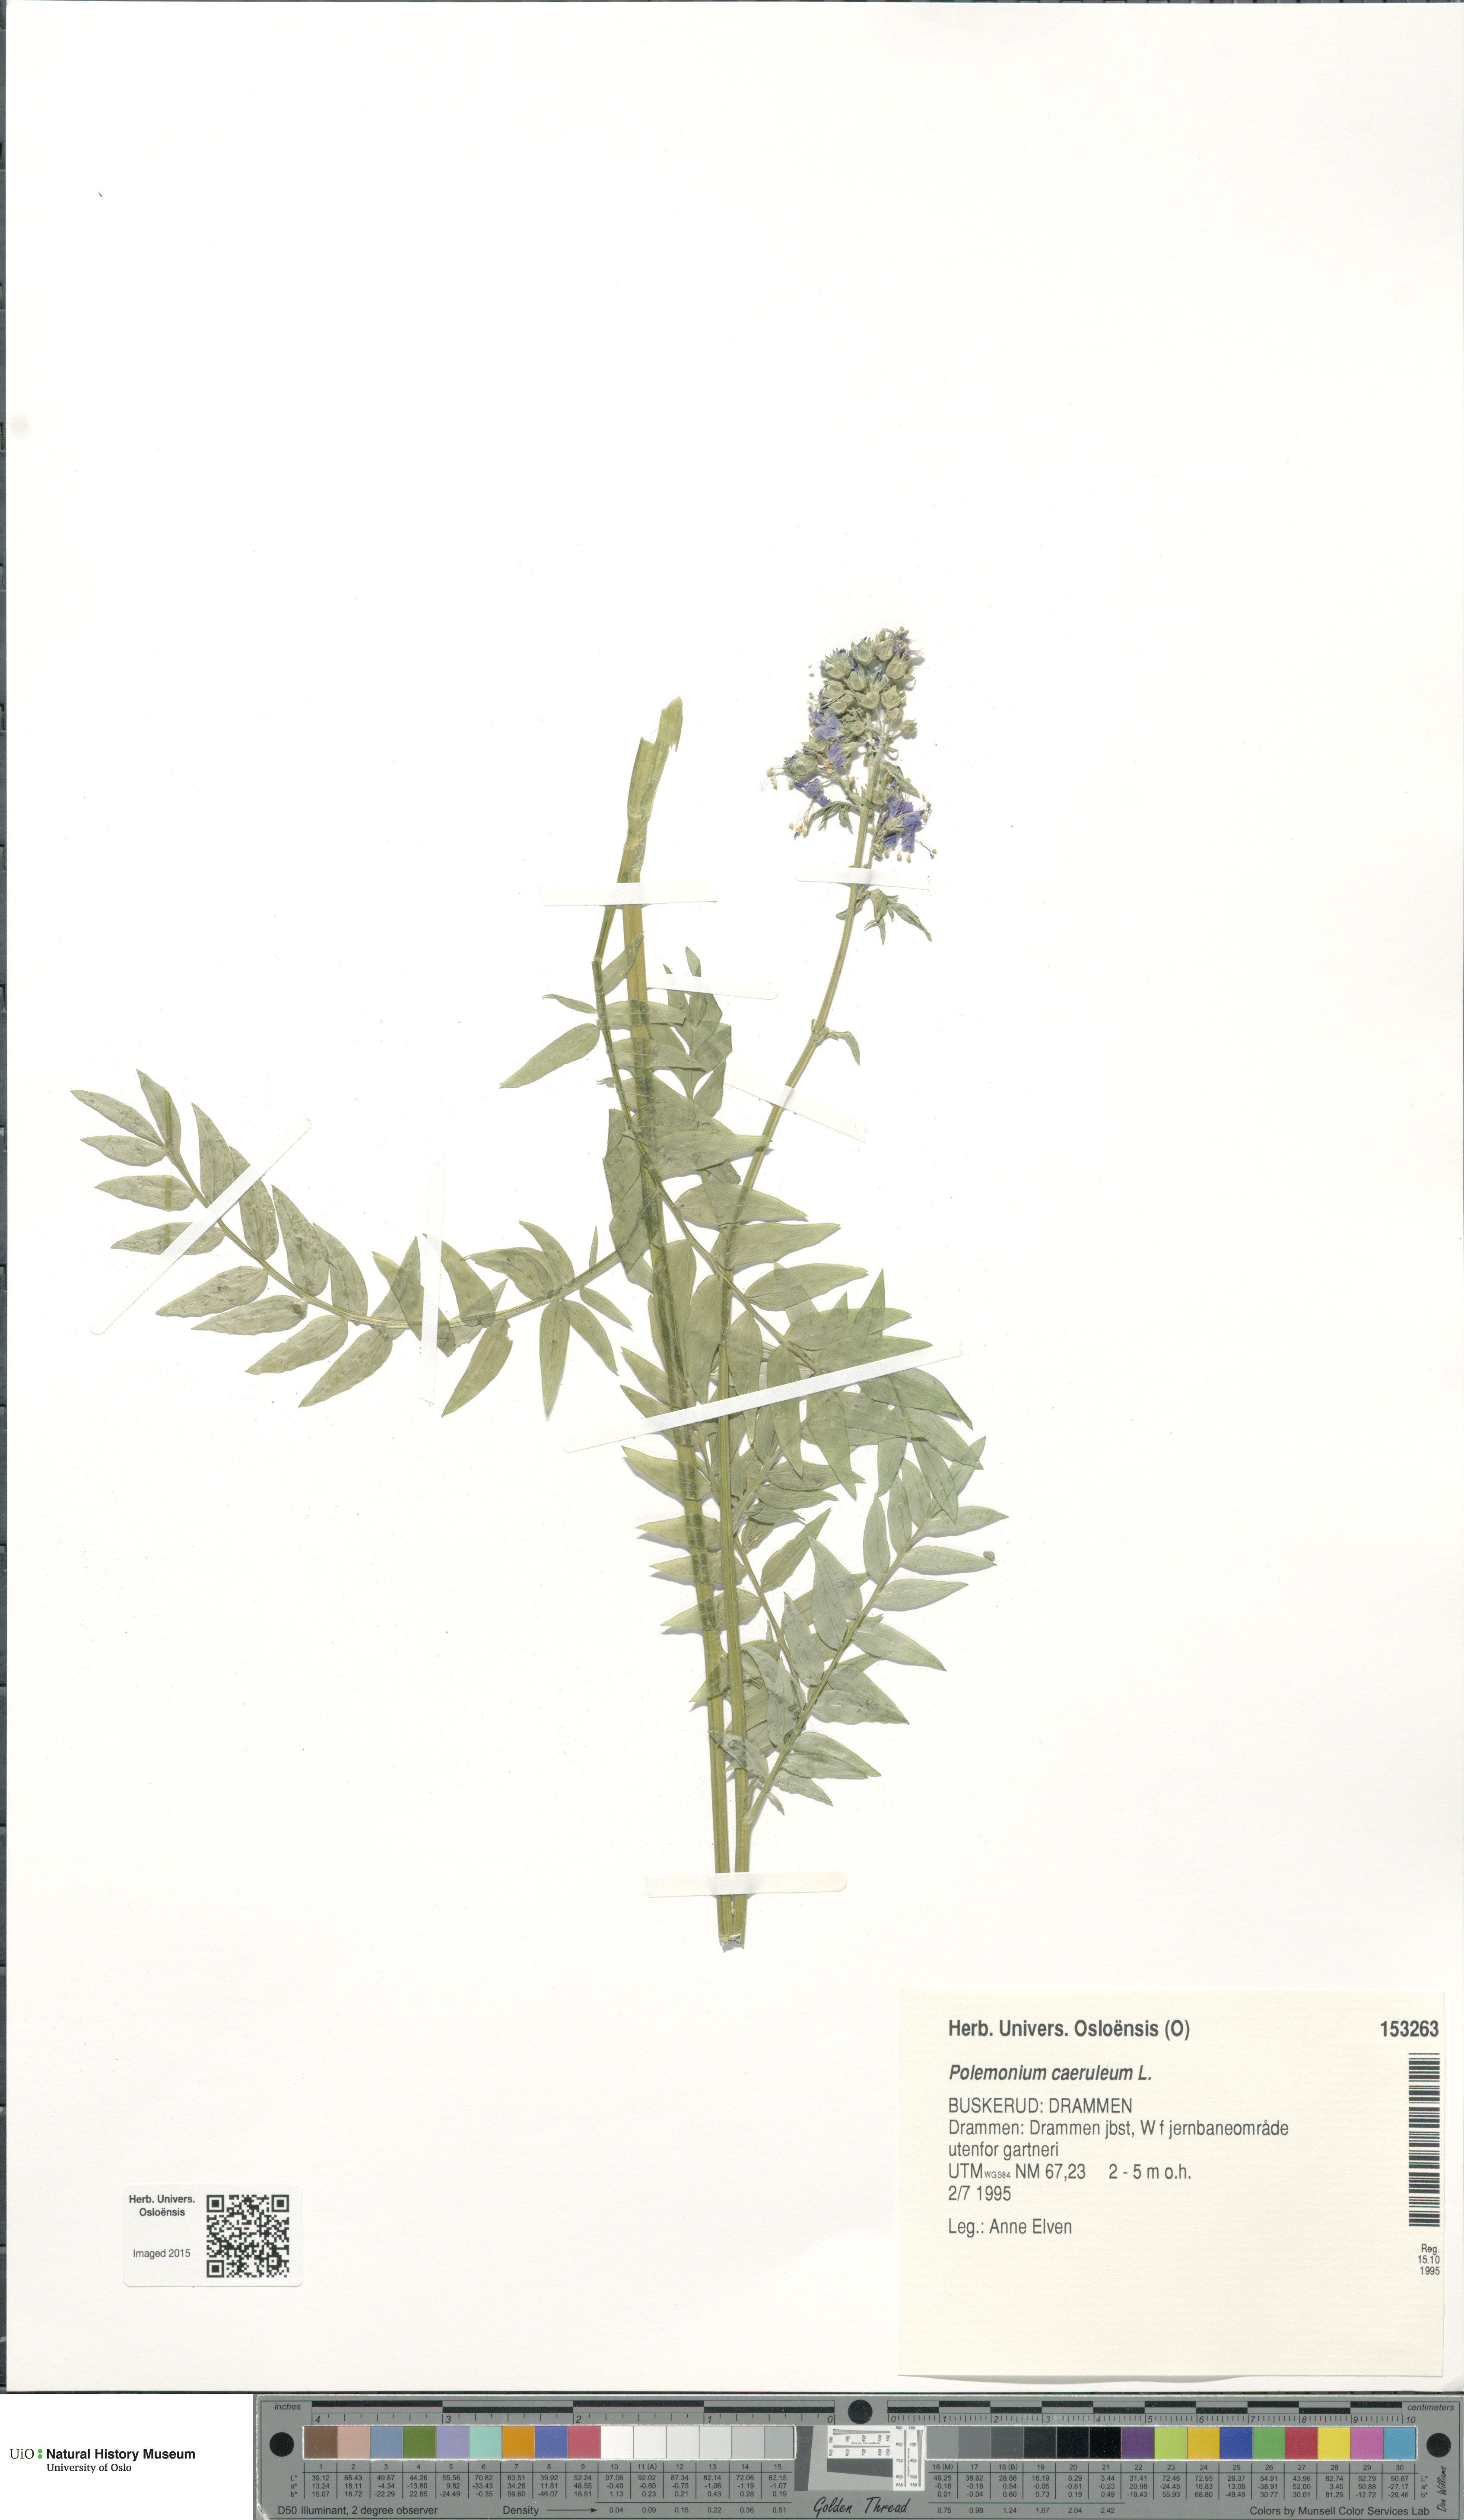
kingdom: Plantae
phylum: Tracheophyta
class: Magnoliopsida
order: Ericales
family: Polemoniaceae
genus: Polemonium
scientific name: Polemonium caeruleum
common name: Jacob's-ladder
